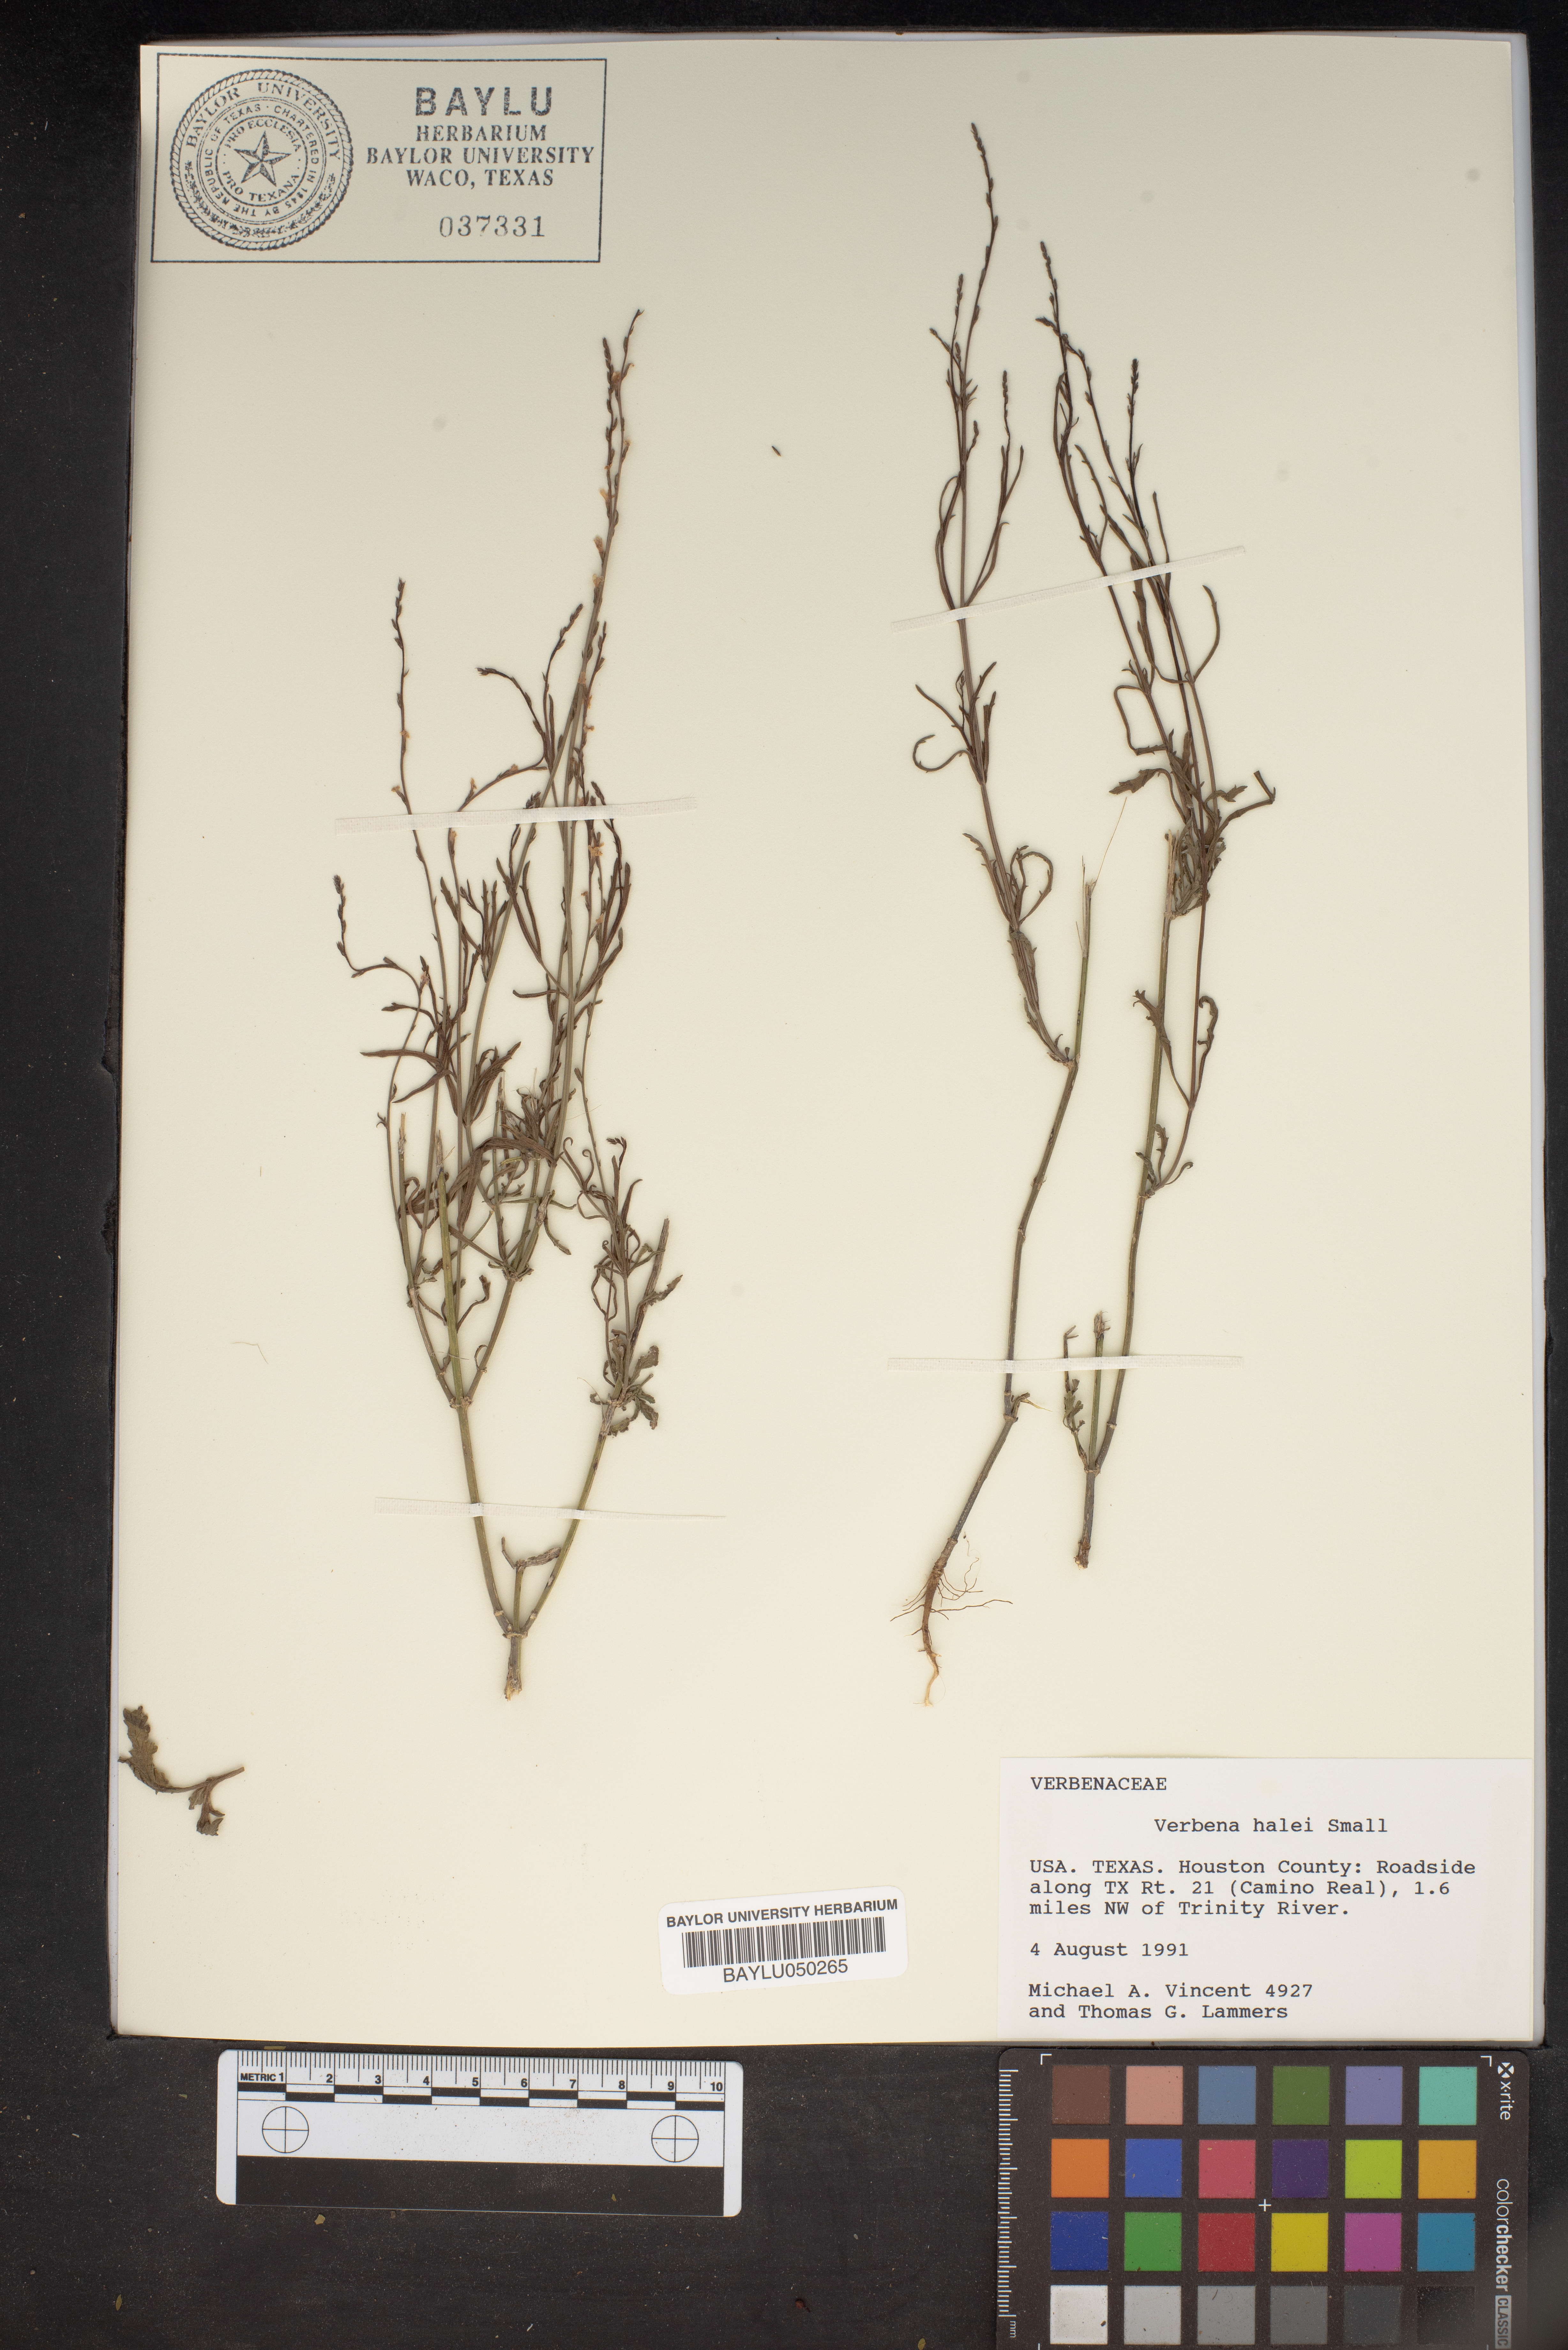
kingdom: Plantae
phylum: Tracheophyta
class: Magnoliopsida
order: Lamiales
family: Verbenaceae
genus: Verbena
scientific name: Verbena halei
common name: Texas vervain
